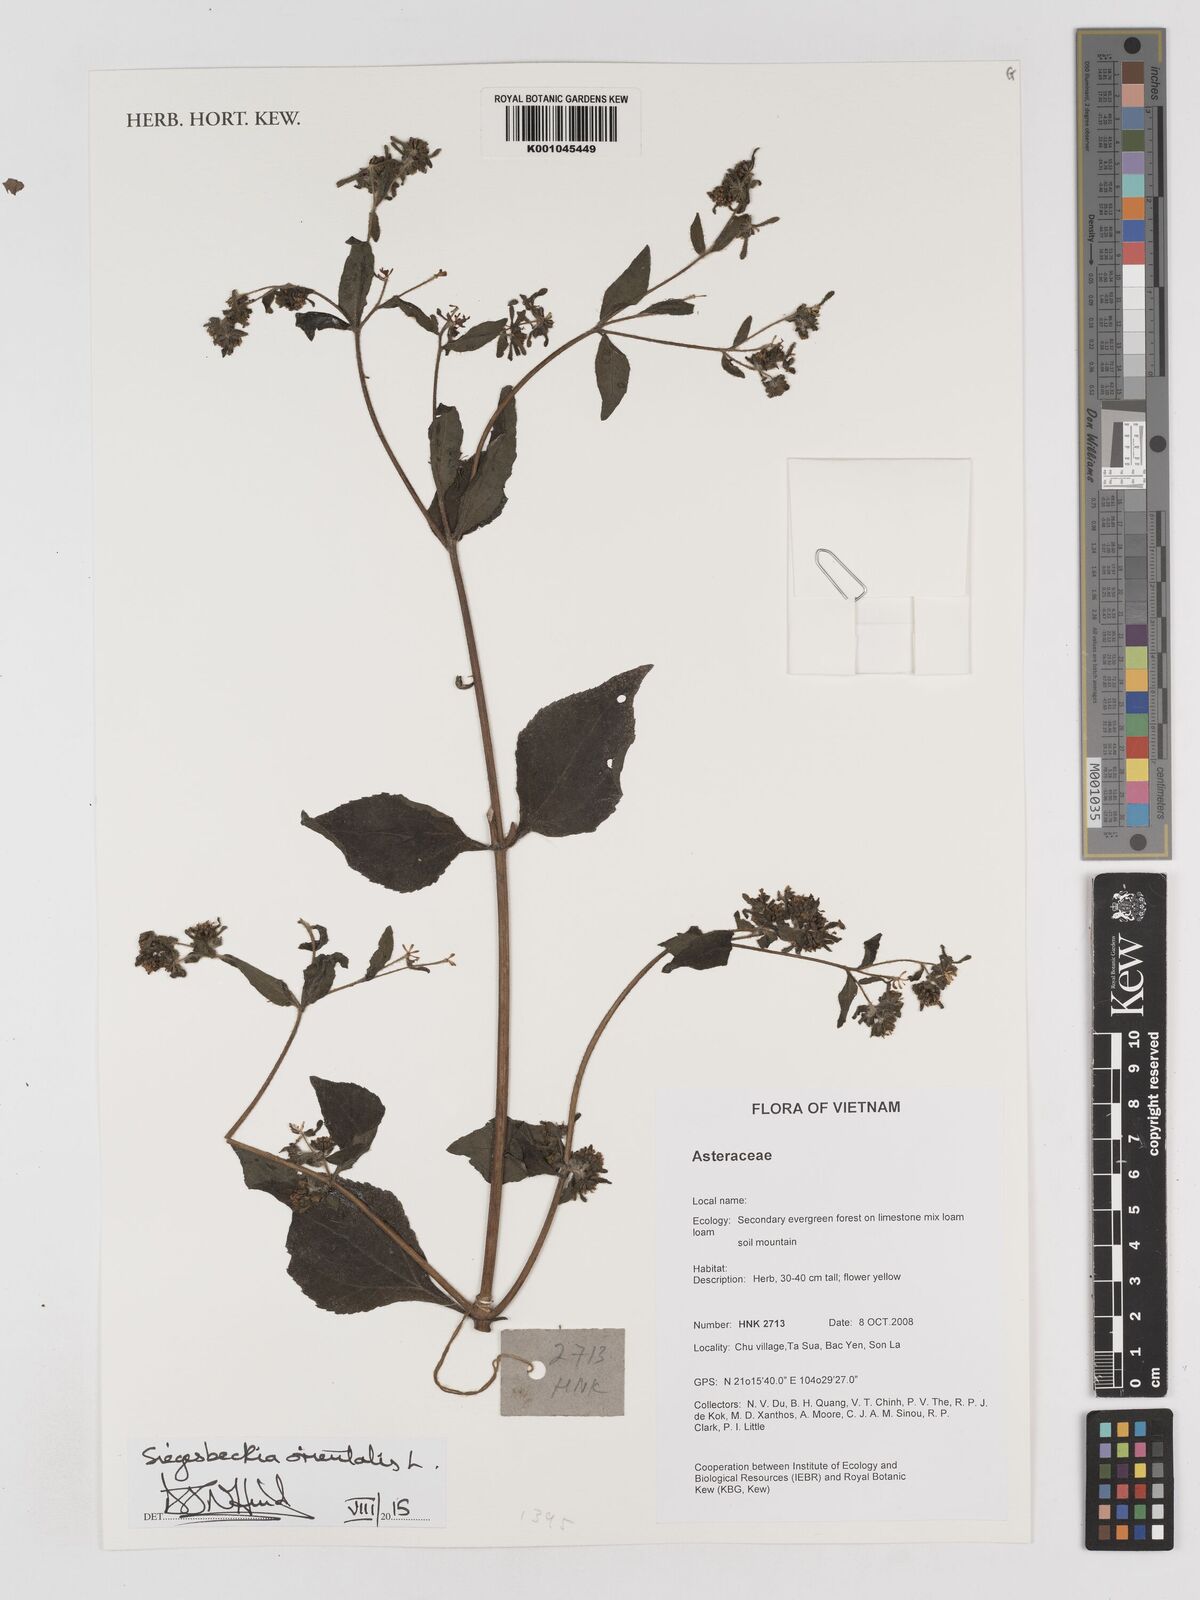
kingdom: Plantae
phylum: Tracheophyta
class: Magnoliopsida
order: Asterales
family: Asteraceae
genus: Sigesbeckia
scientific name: Sigesbeckia orientalis
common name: Eastern st paul's-wort
